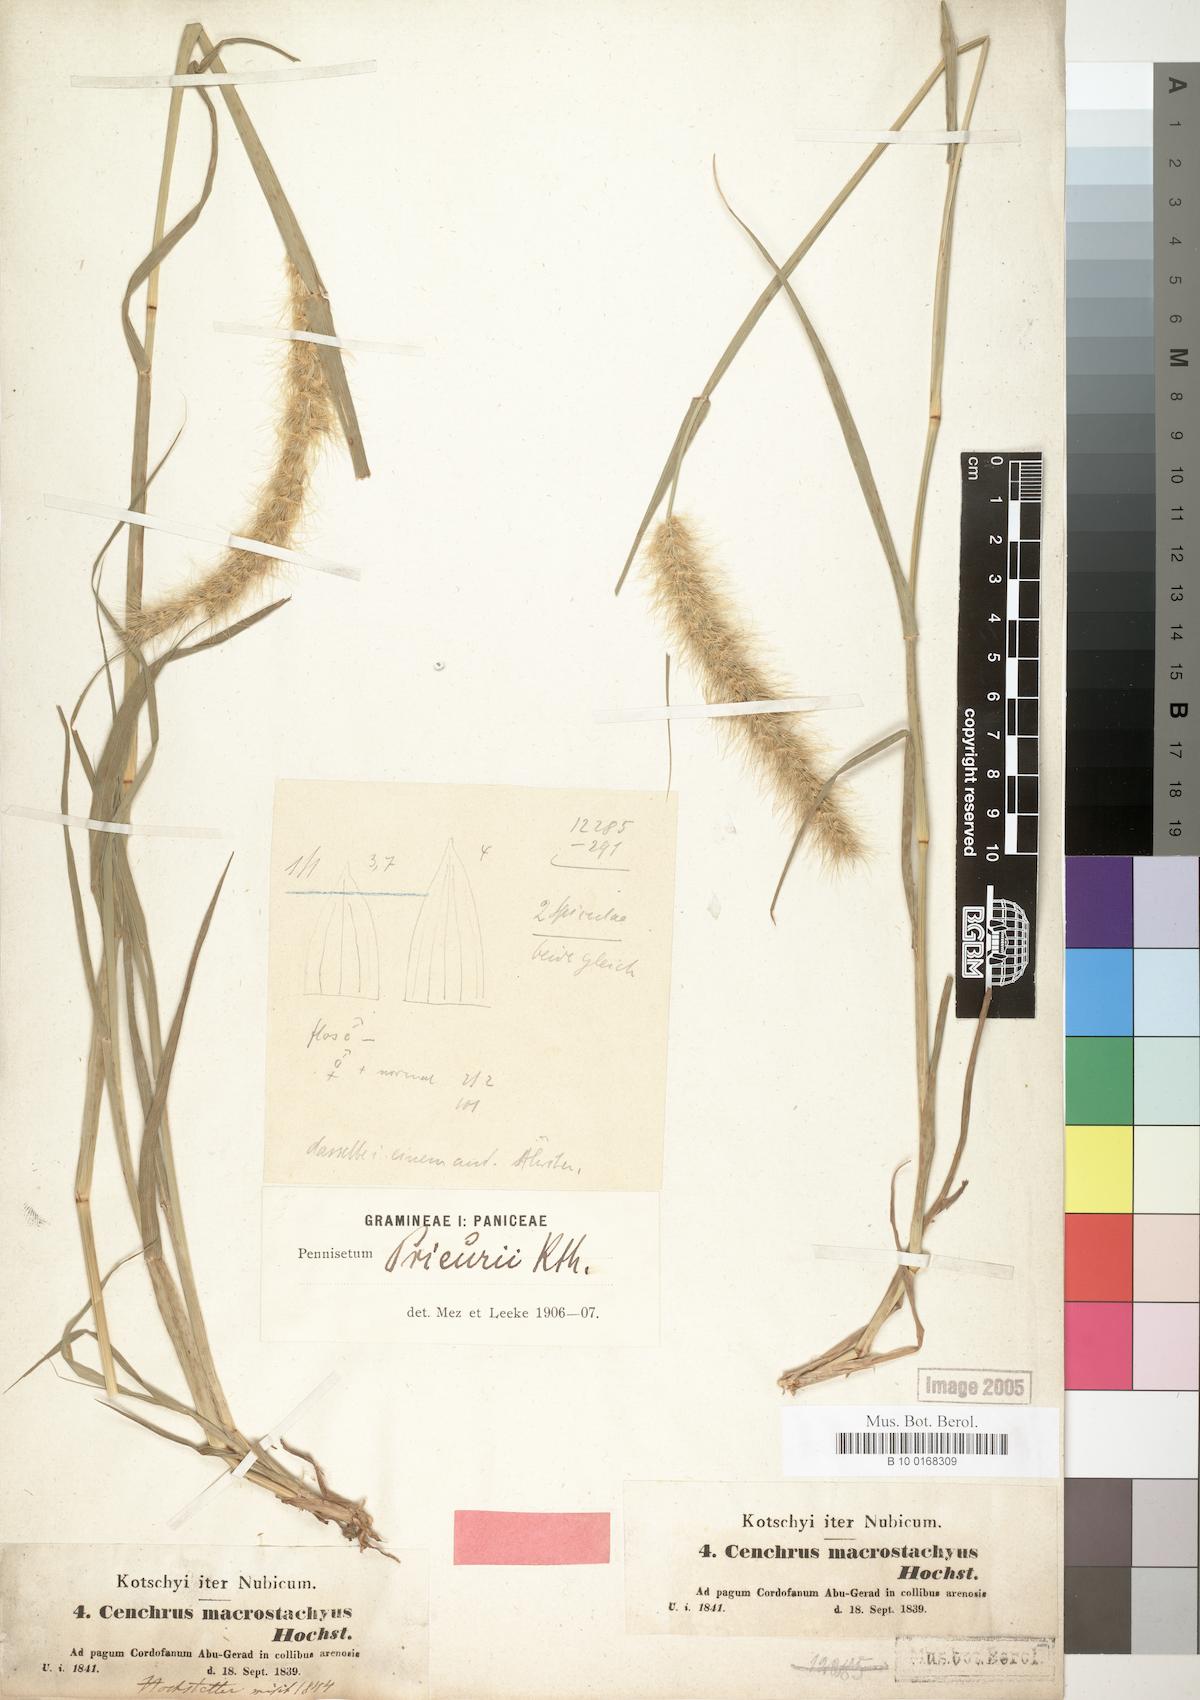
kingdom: Plantae
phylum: Tracheophyta
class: Liliopsida
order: Poales
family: Poaceae
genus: Cenchrus
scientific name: Cenchrus prieurii
